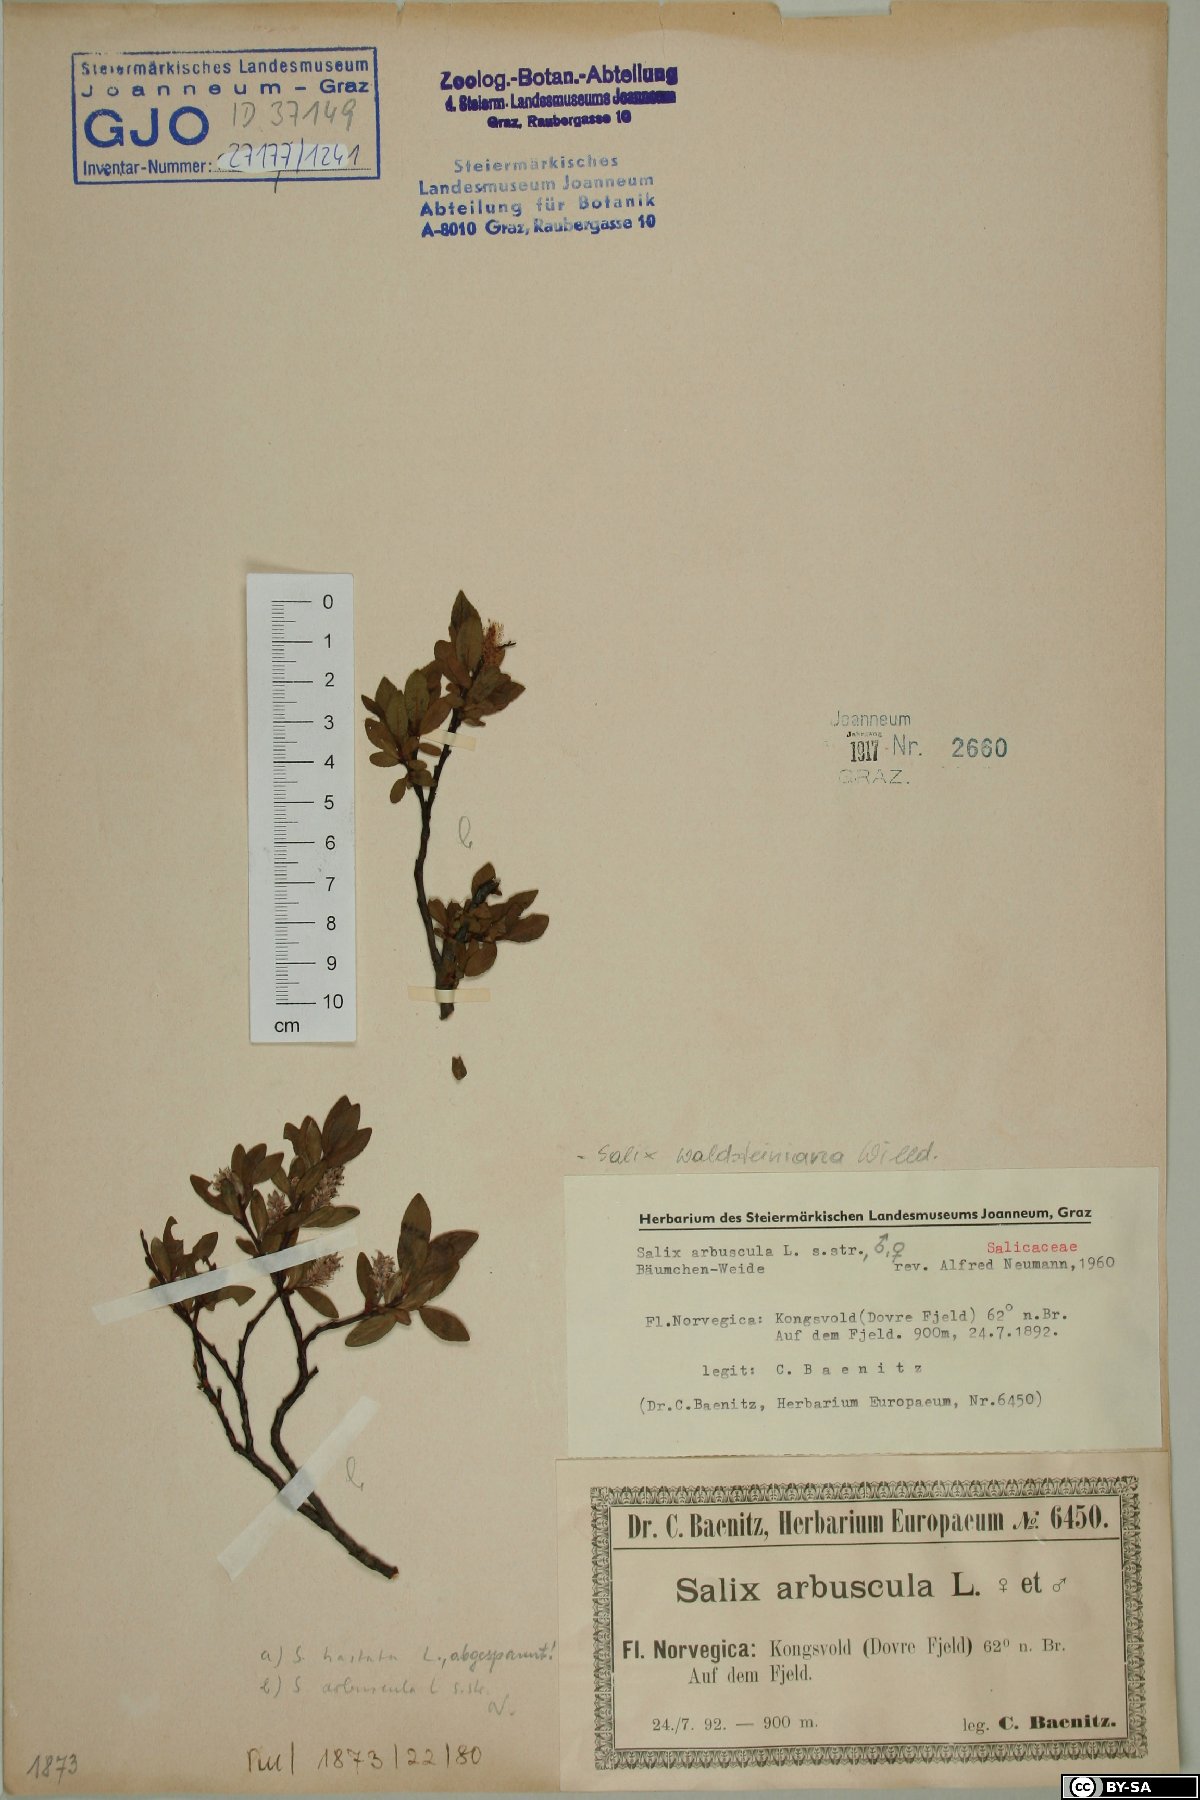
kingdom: Plantae
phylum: Tracheophyta
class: Magnoliopsida
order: Malpighiales
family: Salicaceae
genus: Salix
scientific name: Salix arbuscula
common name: Mountain willow
